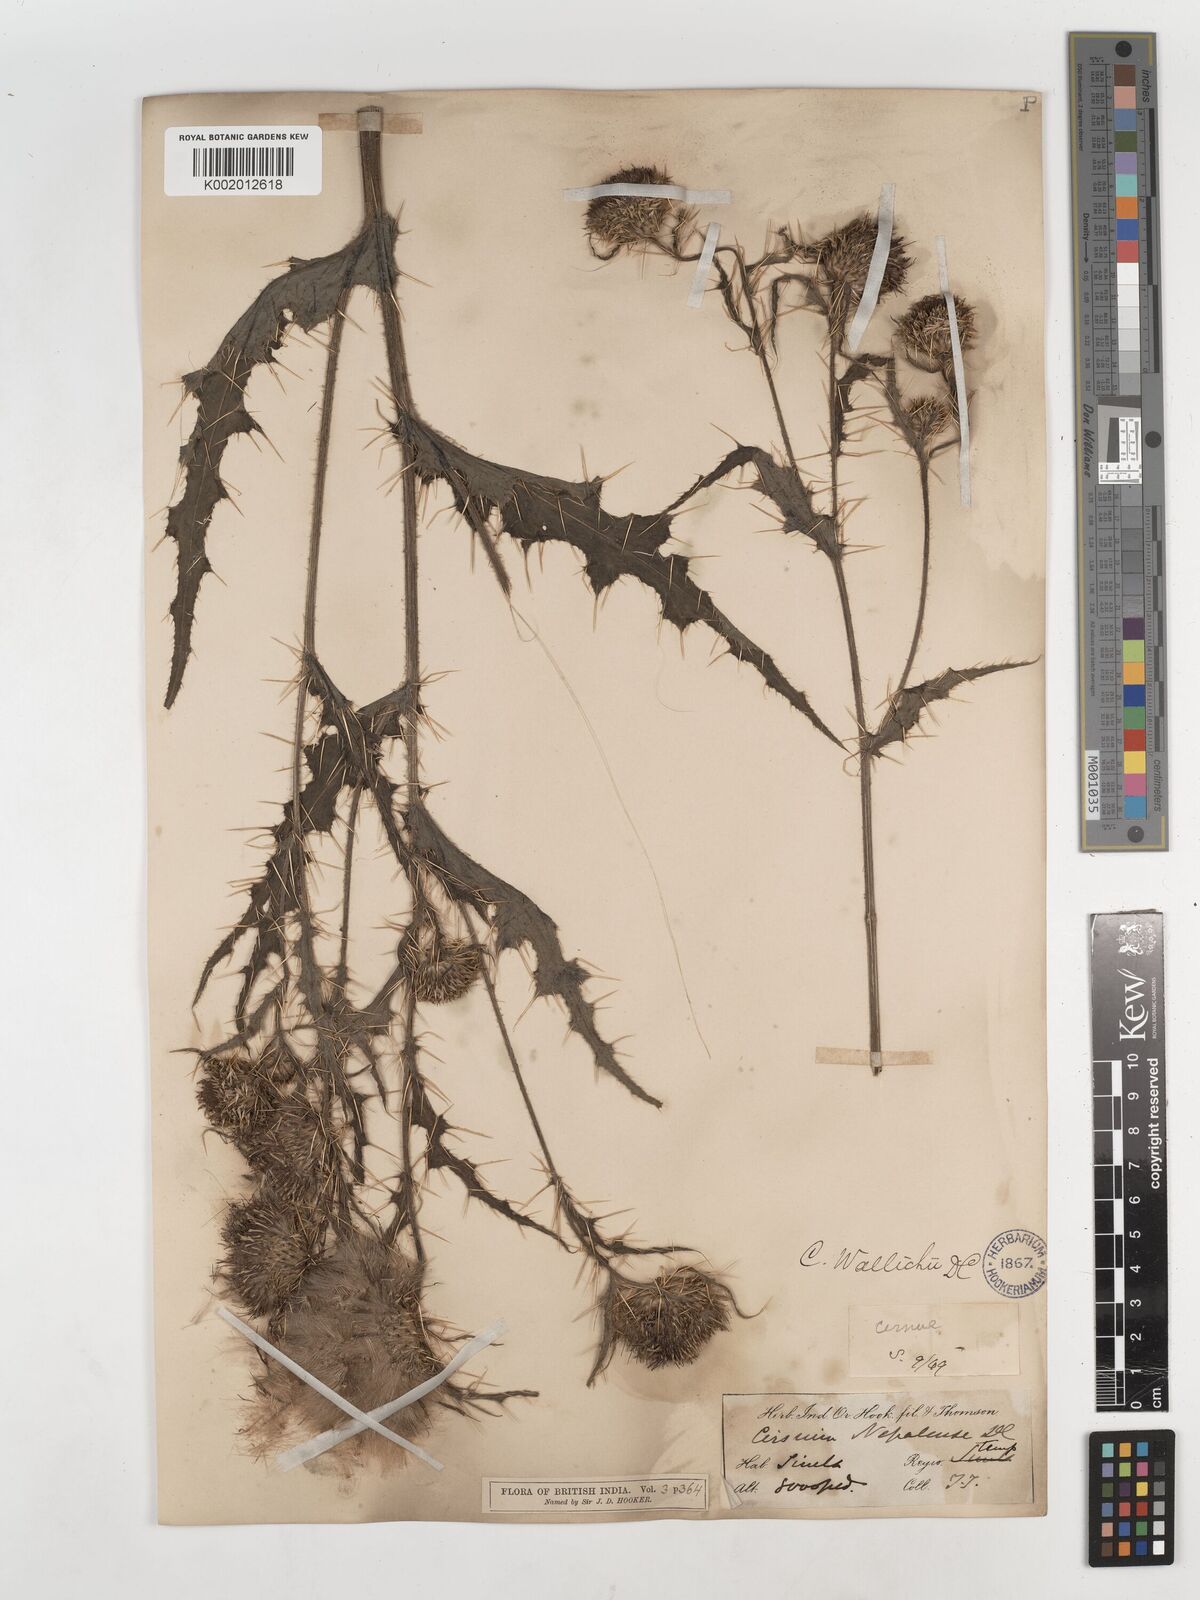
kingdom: Plantae
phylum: Tracheophyta
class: Magnoliopsida
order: Asterales
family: Asteraceae
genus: Cirsium
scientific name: Cirsium wallichii
